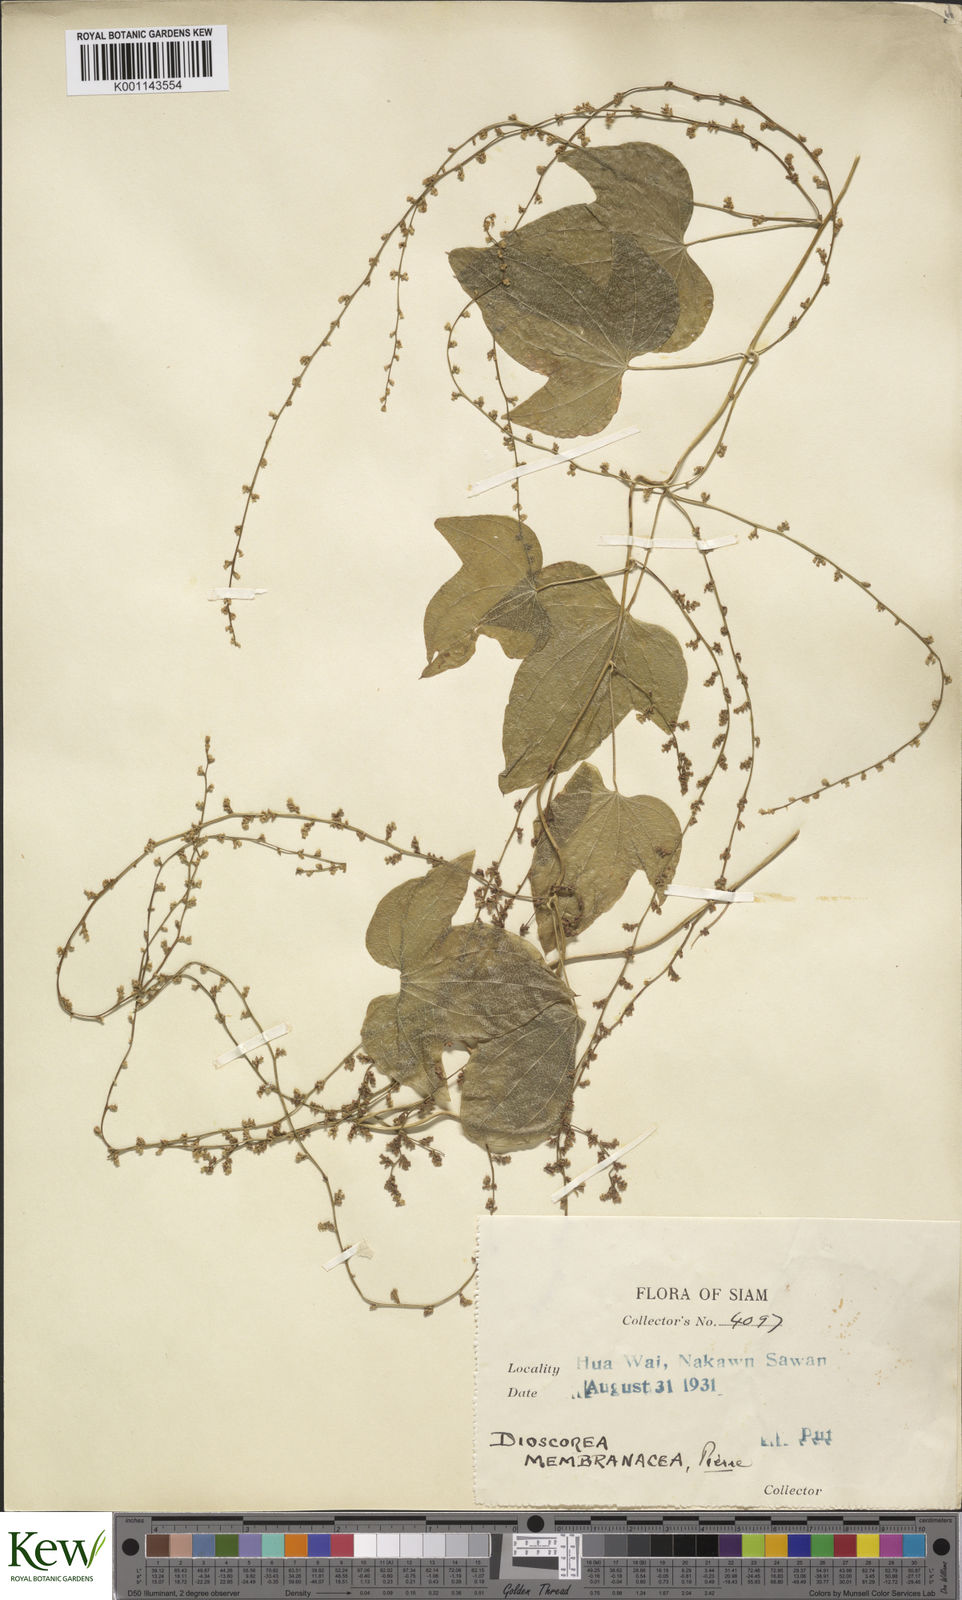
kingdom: Plantae
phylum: Tracheophyta
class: Liliopsida
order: Dioscoreales
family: Dioscoreaceae
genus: Dioscorea
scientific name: Dioscorea membranacea
